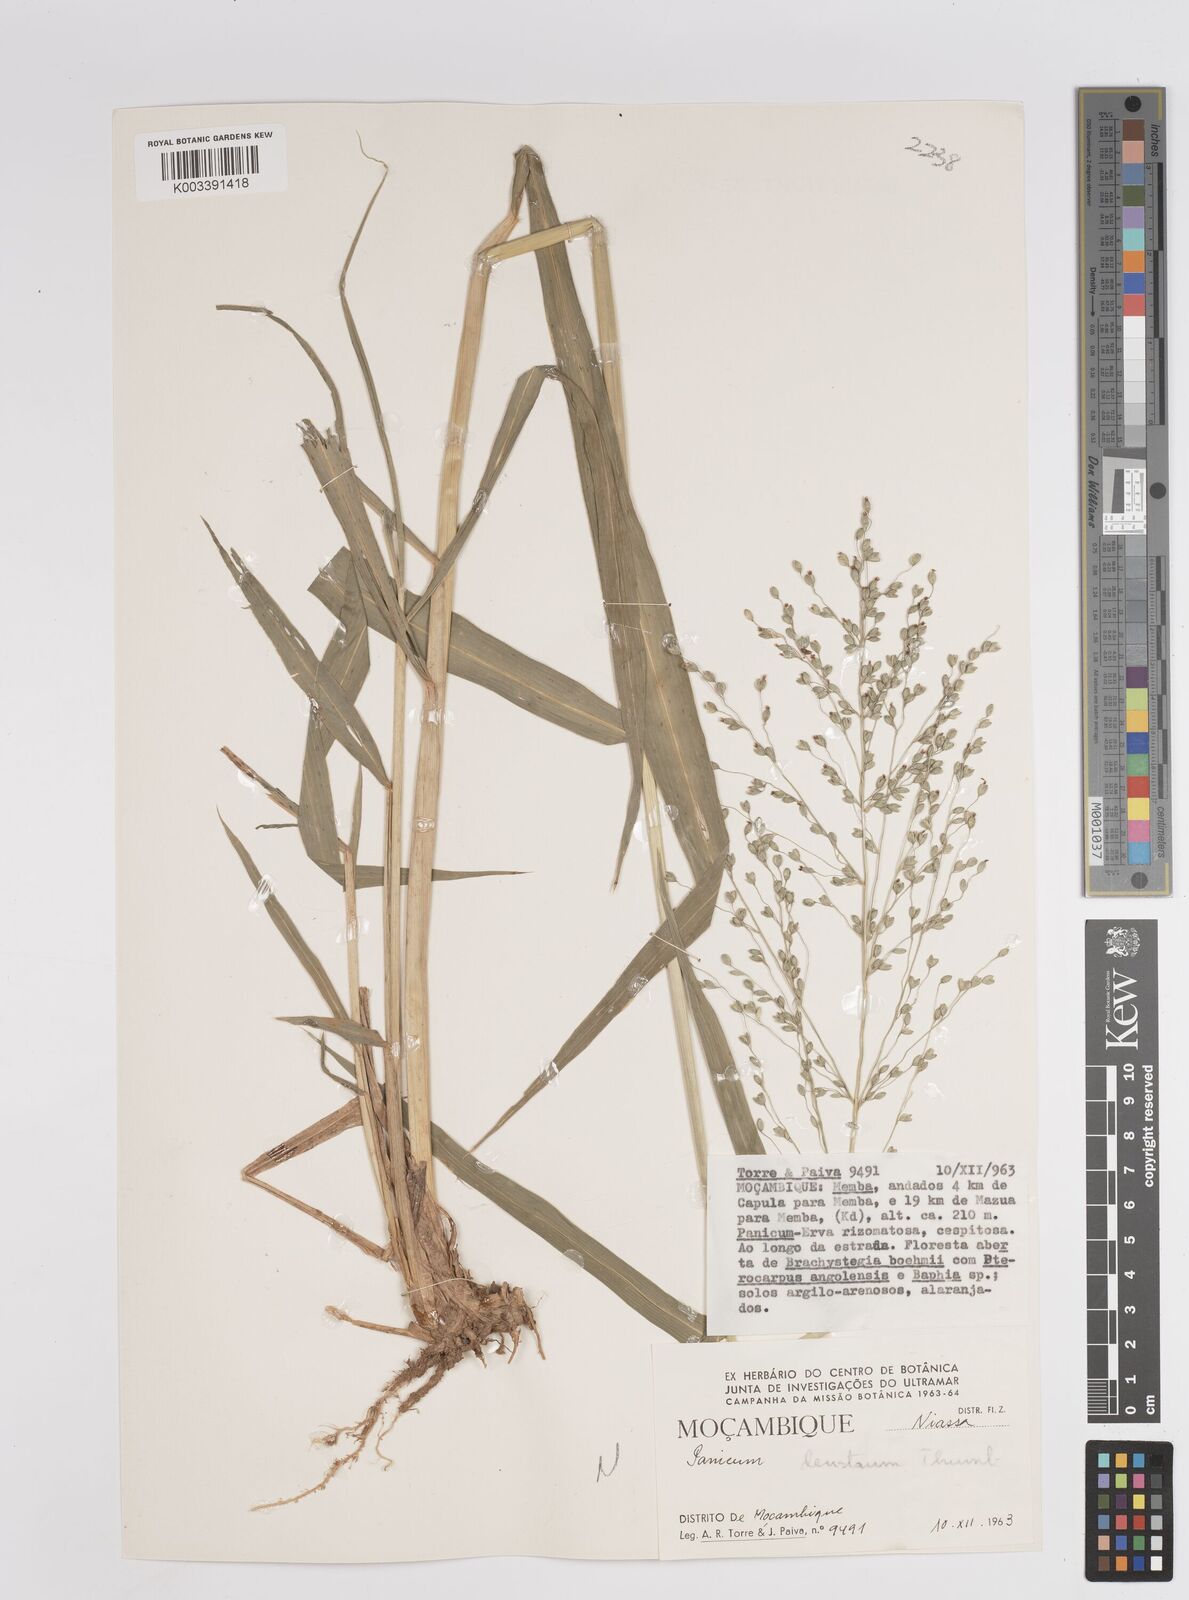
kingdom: Plantae
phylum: Tracheophyta
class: Liliopsida
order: Poales
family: Poaceae
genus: Panicum
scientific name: Panicum deustum
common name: Reed panicum
